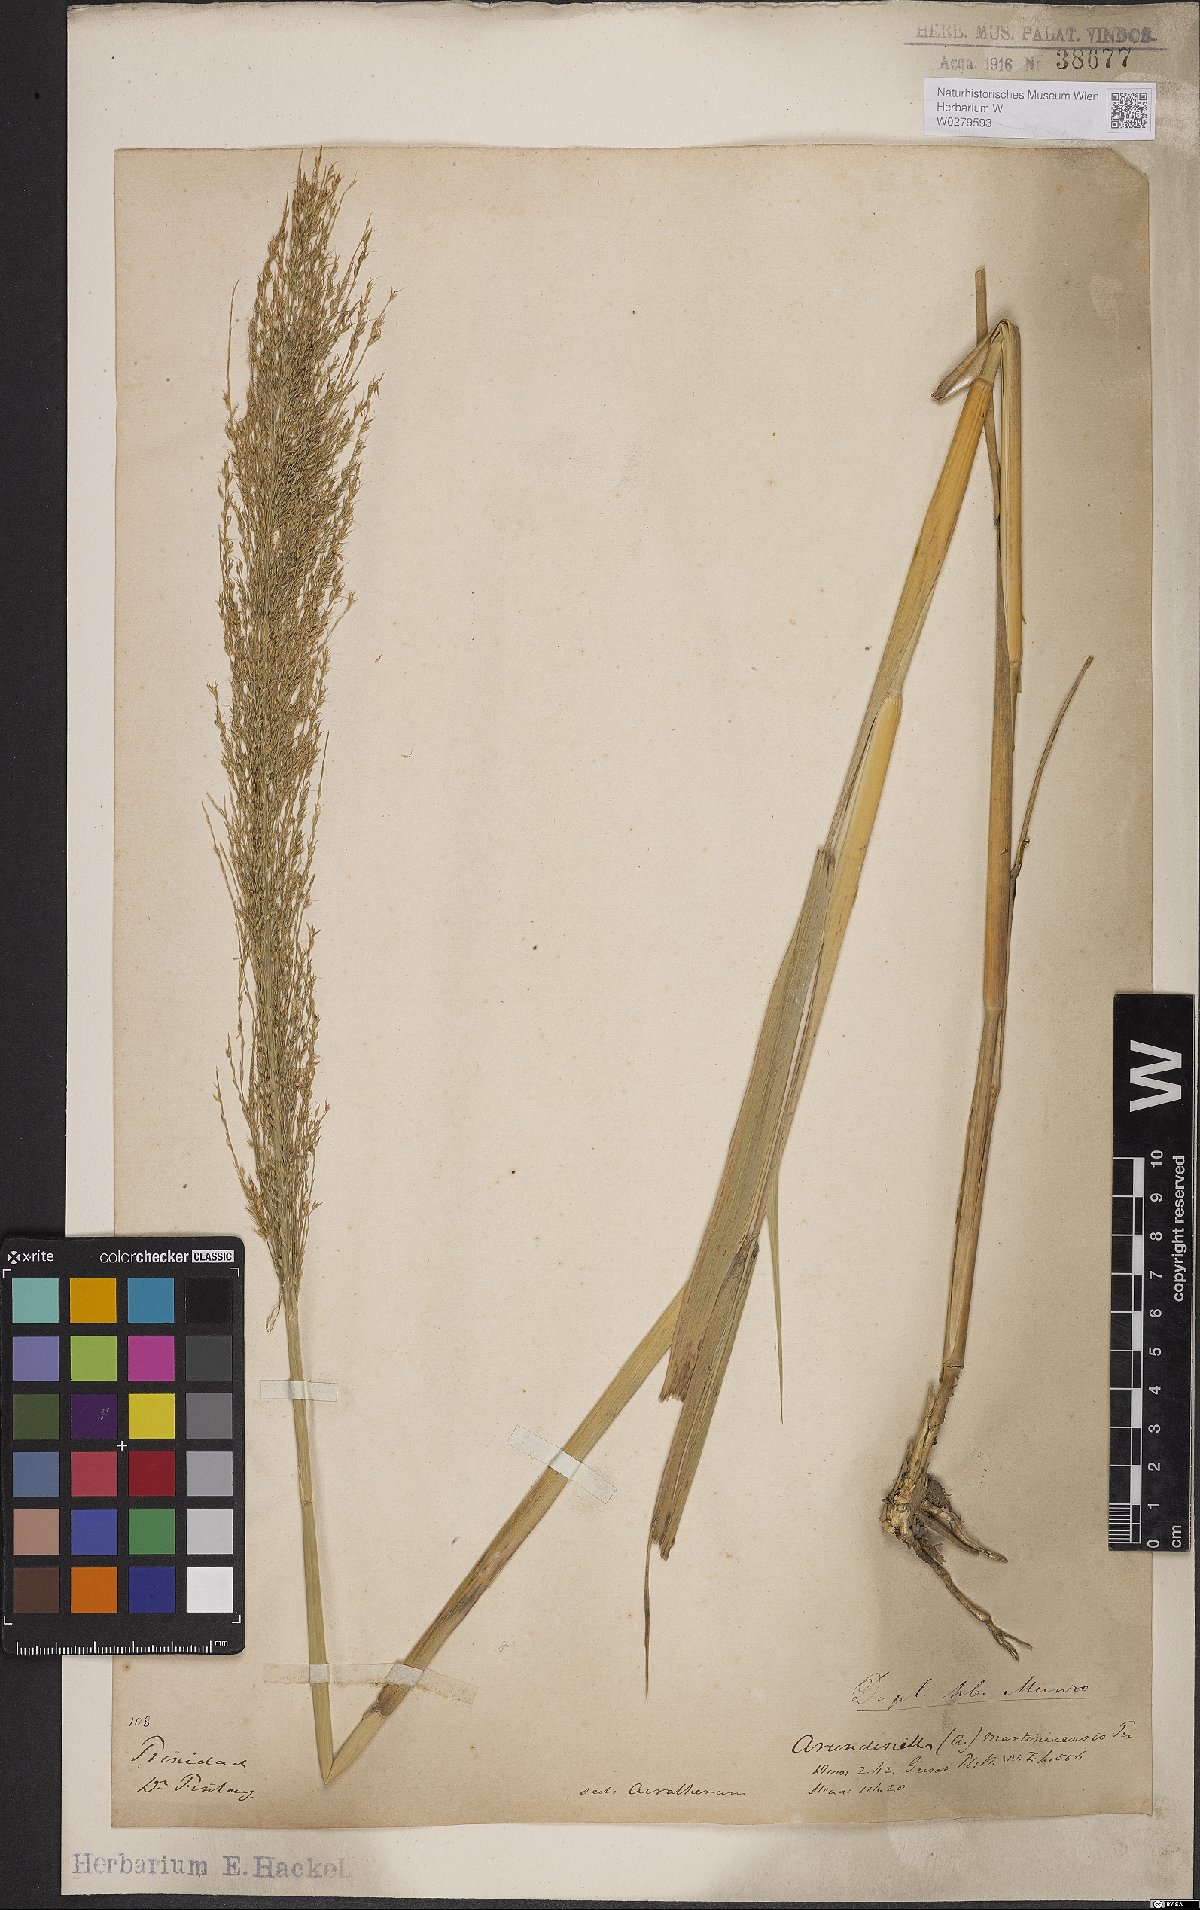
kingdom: Plantae
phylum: Tracheophyta
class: Liliopsida
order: Poales
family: Poaceae
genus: Arundinella
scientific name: Arundinella hispida
